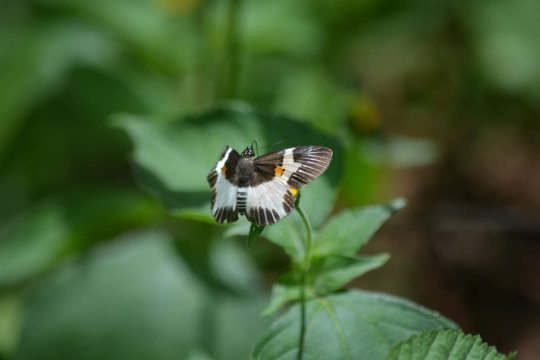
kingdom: Animalia
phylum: Arthropoda
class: Insecta
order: Lepidoptera
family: Hesperiidae
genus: Atarnes
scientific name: Atarnes sallei
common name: Orange-spotted Skipper
